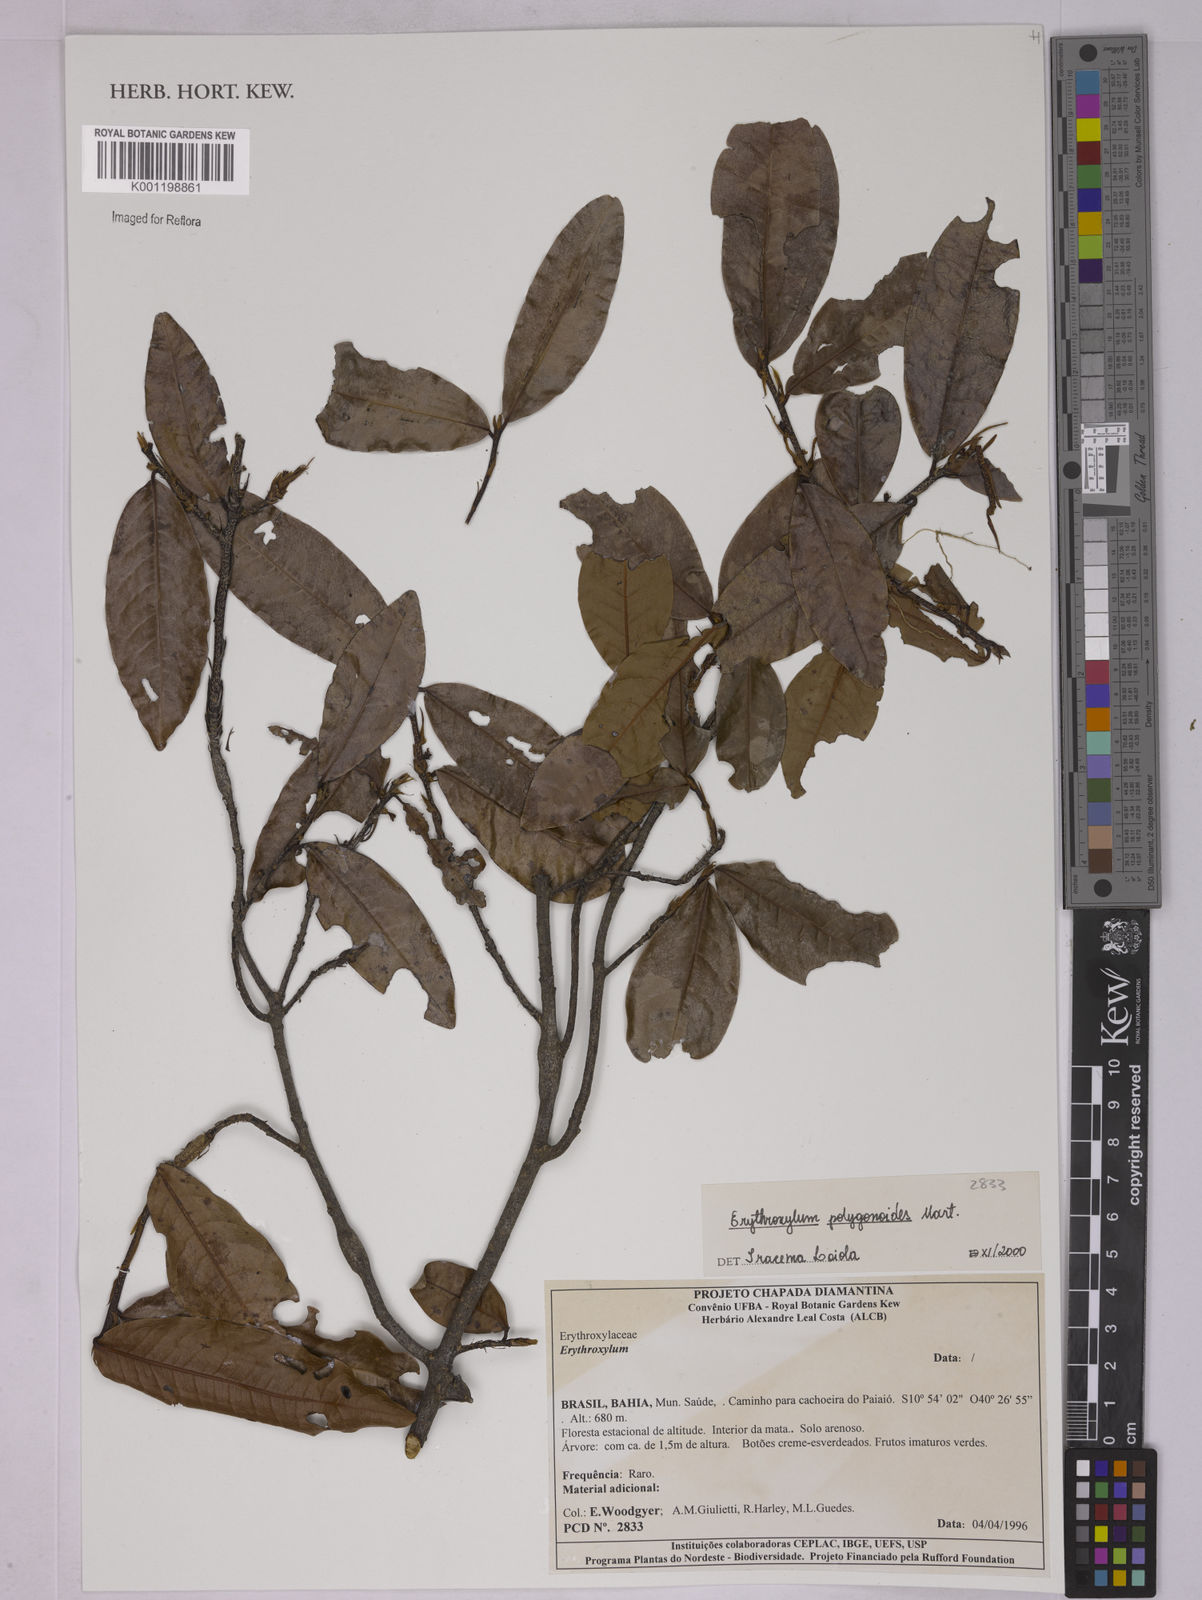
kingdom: Plantae
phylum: Tracheophyta
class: Magnoliopsida
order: Malpighiales
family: Erythroxylaceae
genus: Erythroxylum
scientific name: Erythroxylum polygonoides
